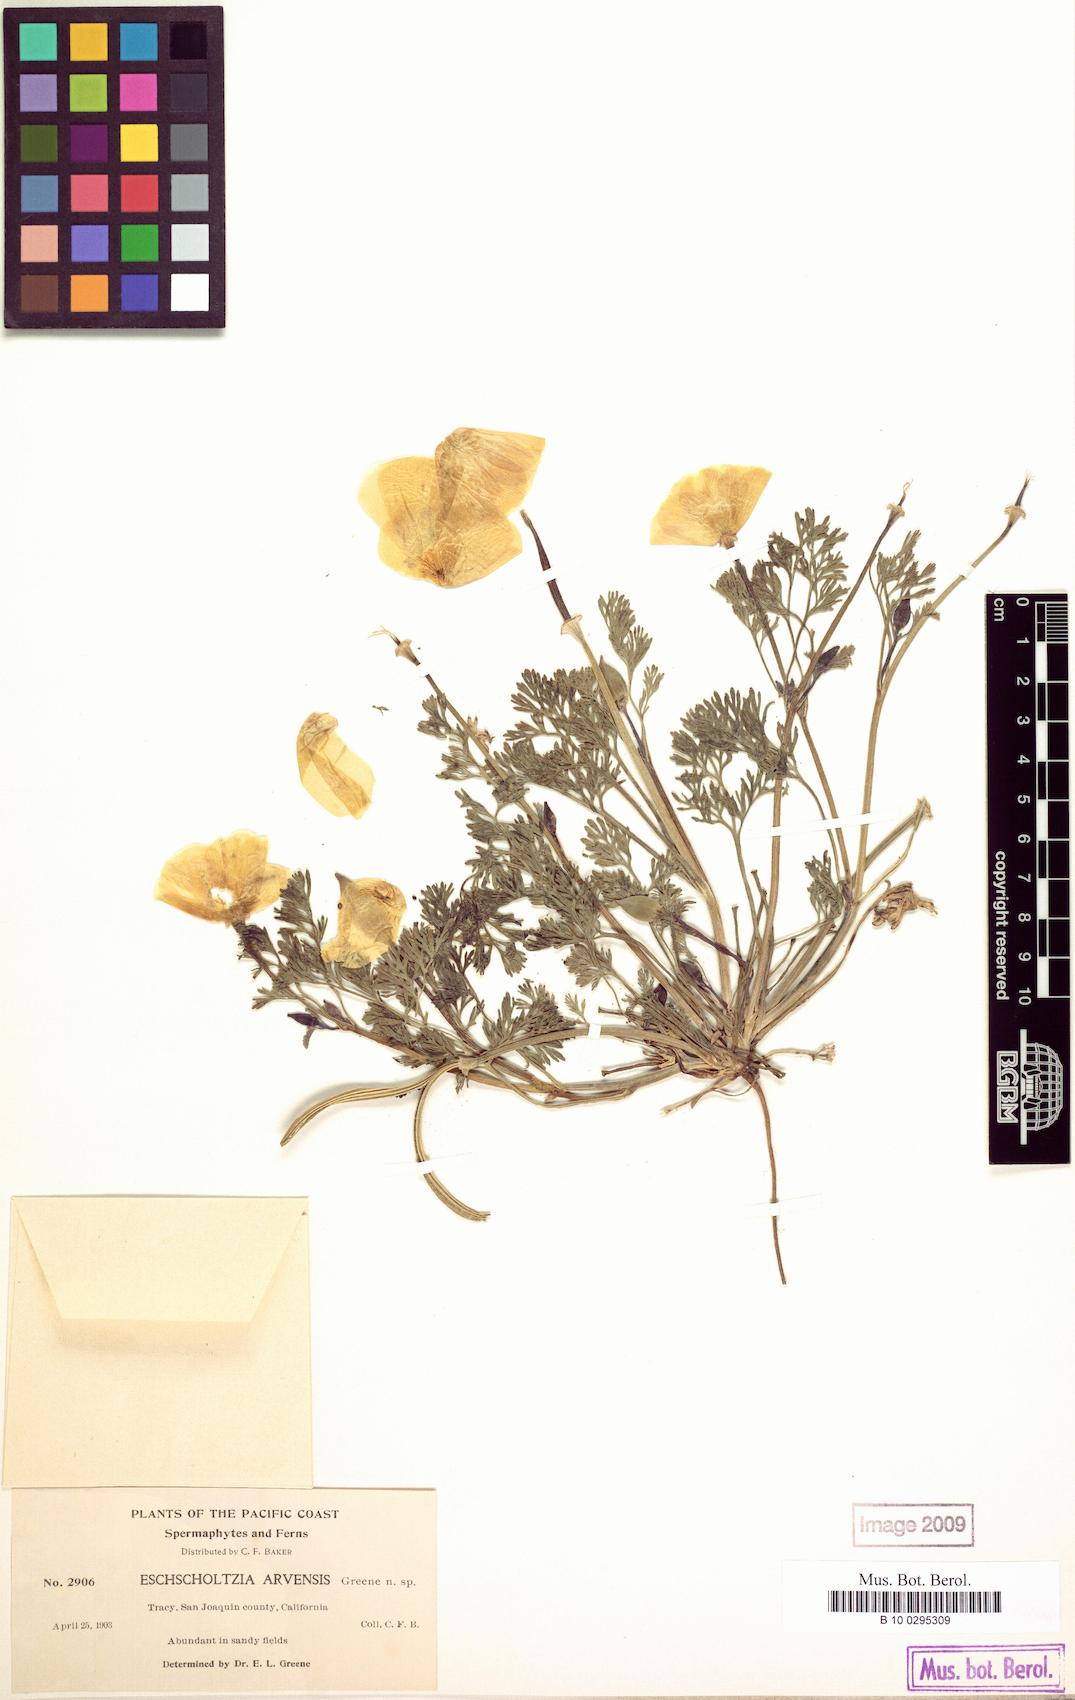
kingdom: Plantae
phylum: Tracheophyta
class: Magnoliopsida
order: Ranunculales
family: Papaveraceae
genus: Eschscholzia
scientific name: Eschscholzia californica
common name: California poppy
